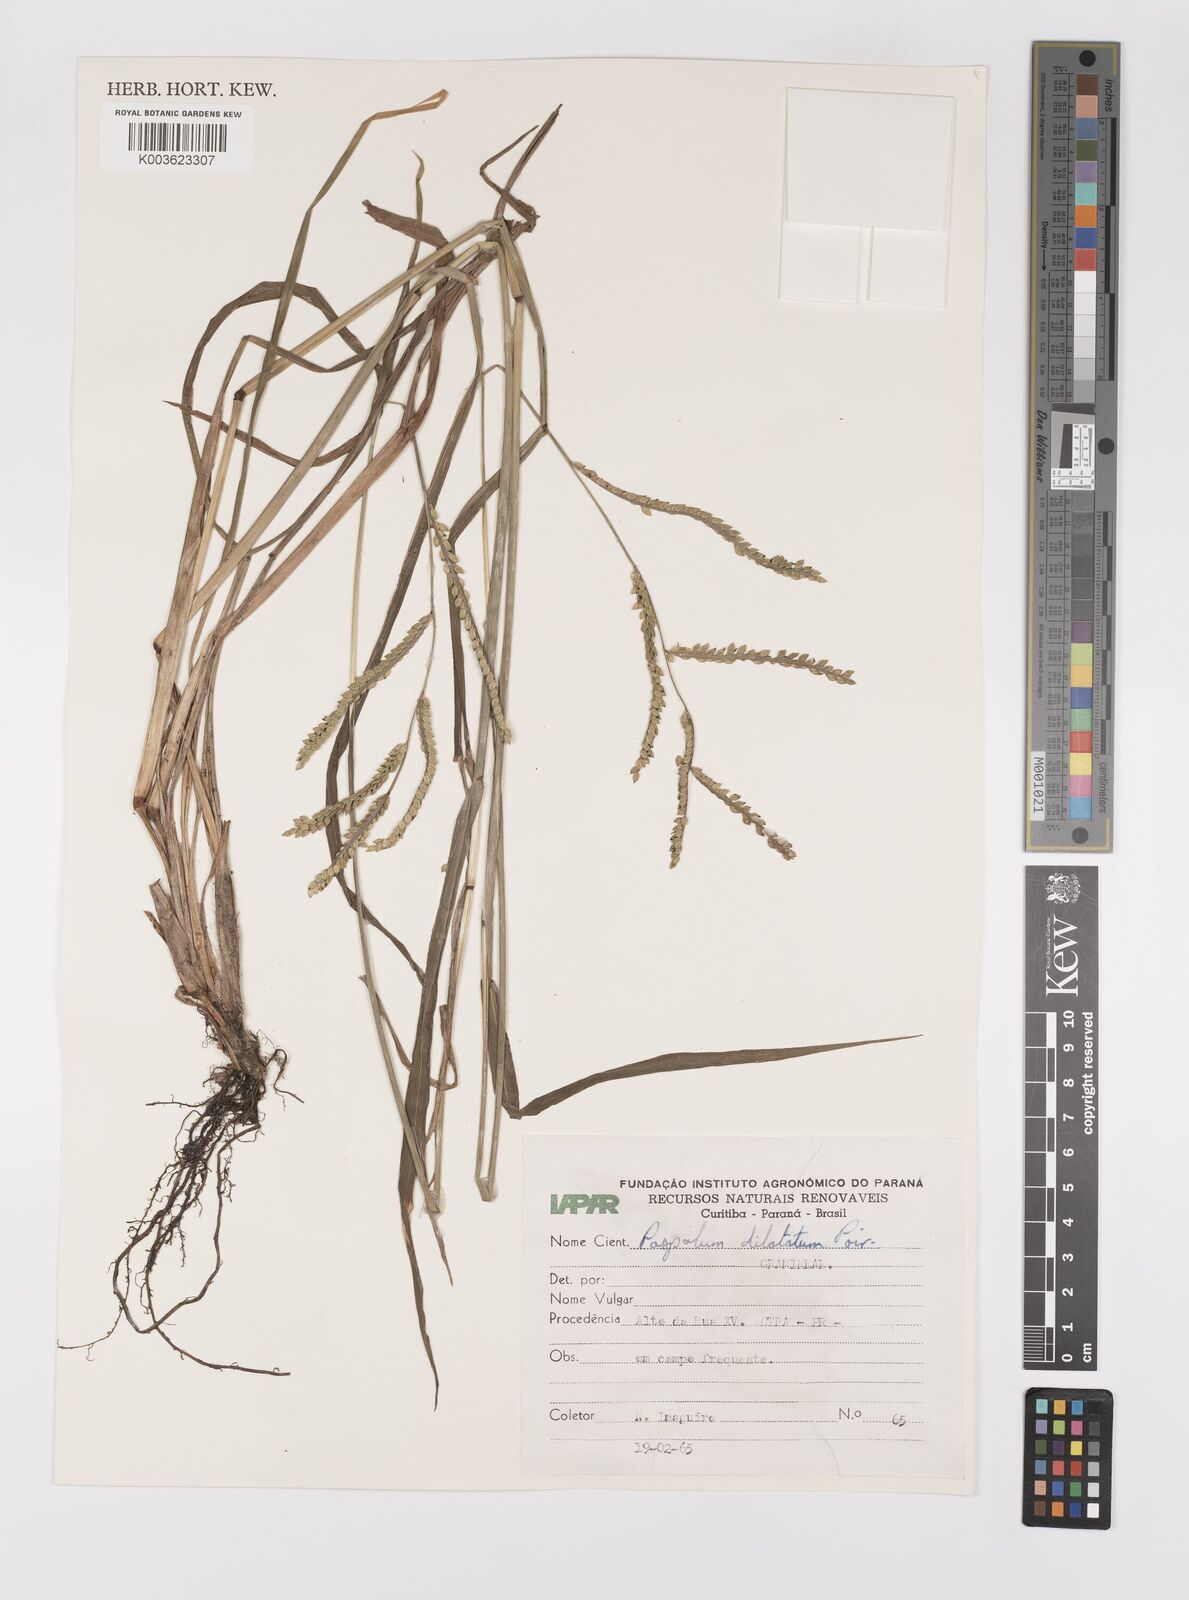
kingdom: Plantae
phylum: Tracheophyta
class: Liliopsida
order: Poales
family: Poaceae
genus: Paspalum
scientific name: Paspalum dilatatum
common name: Dallisgrass
